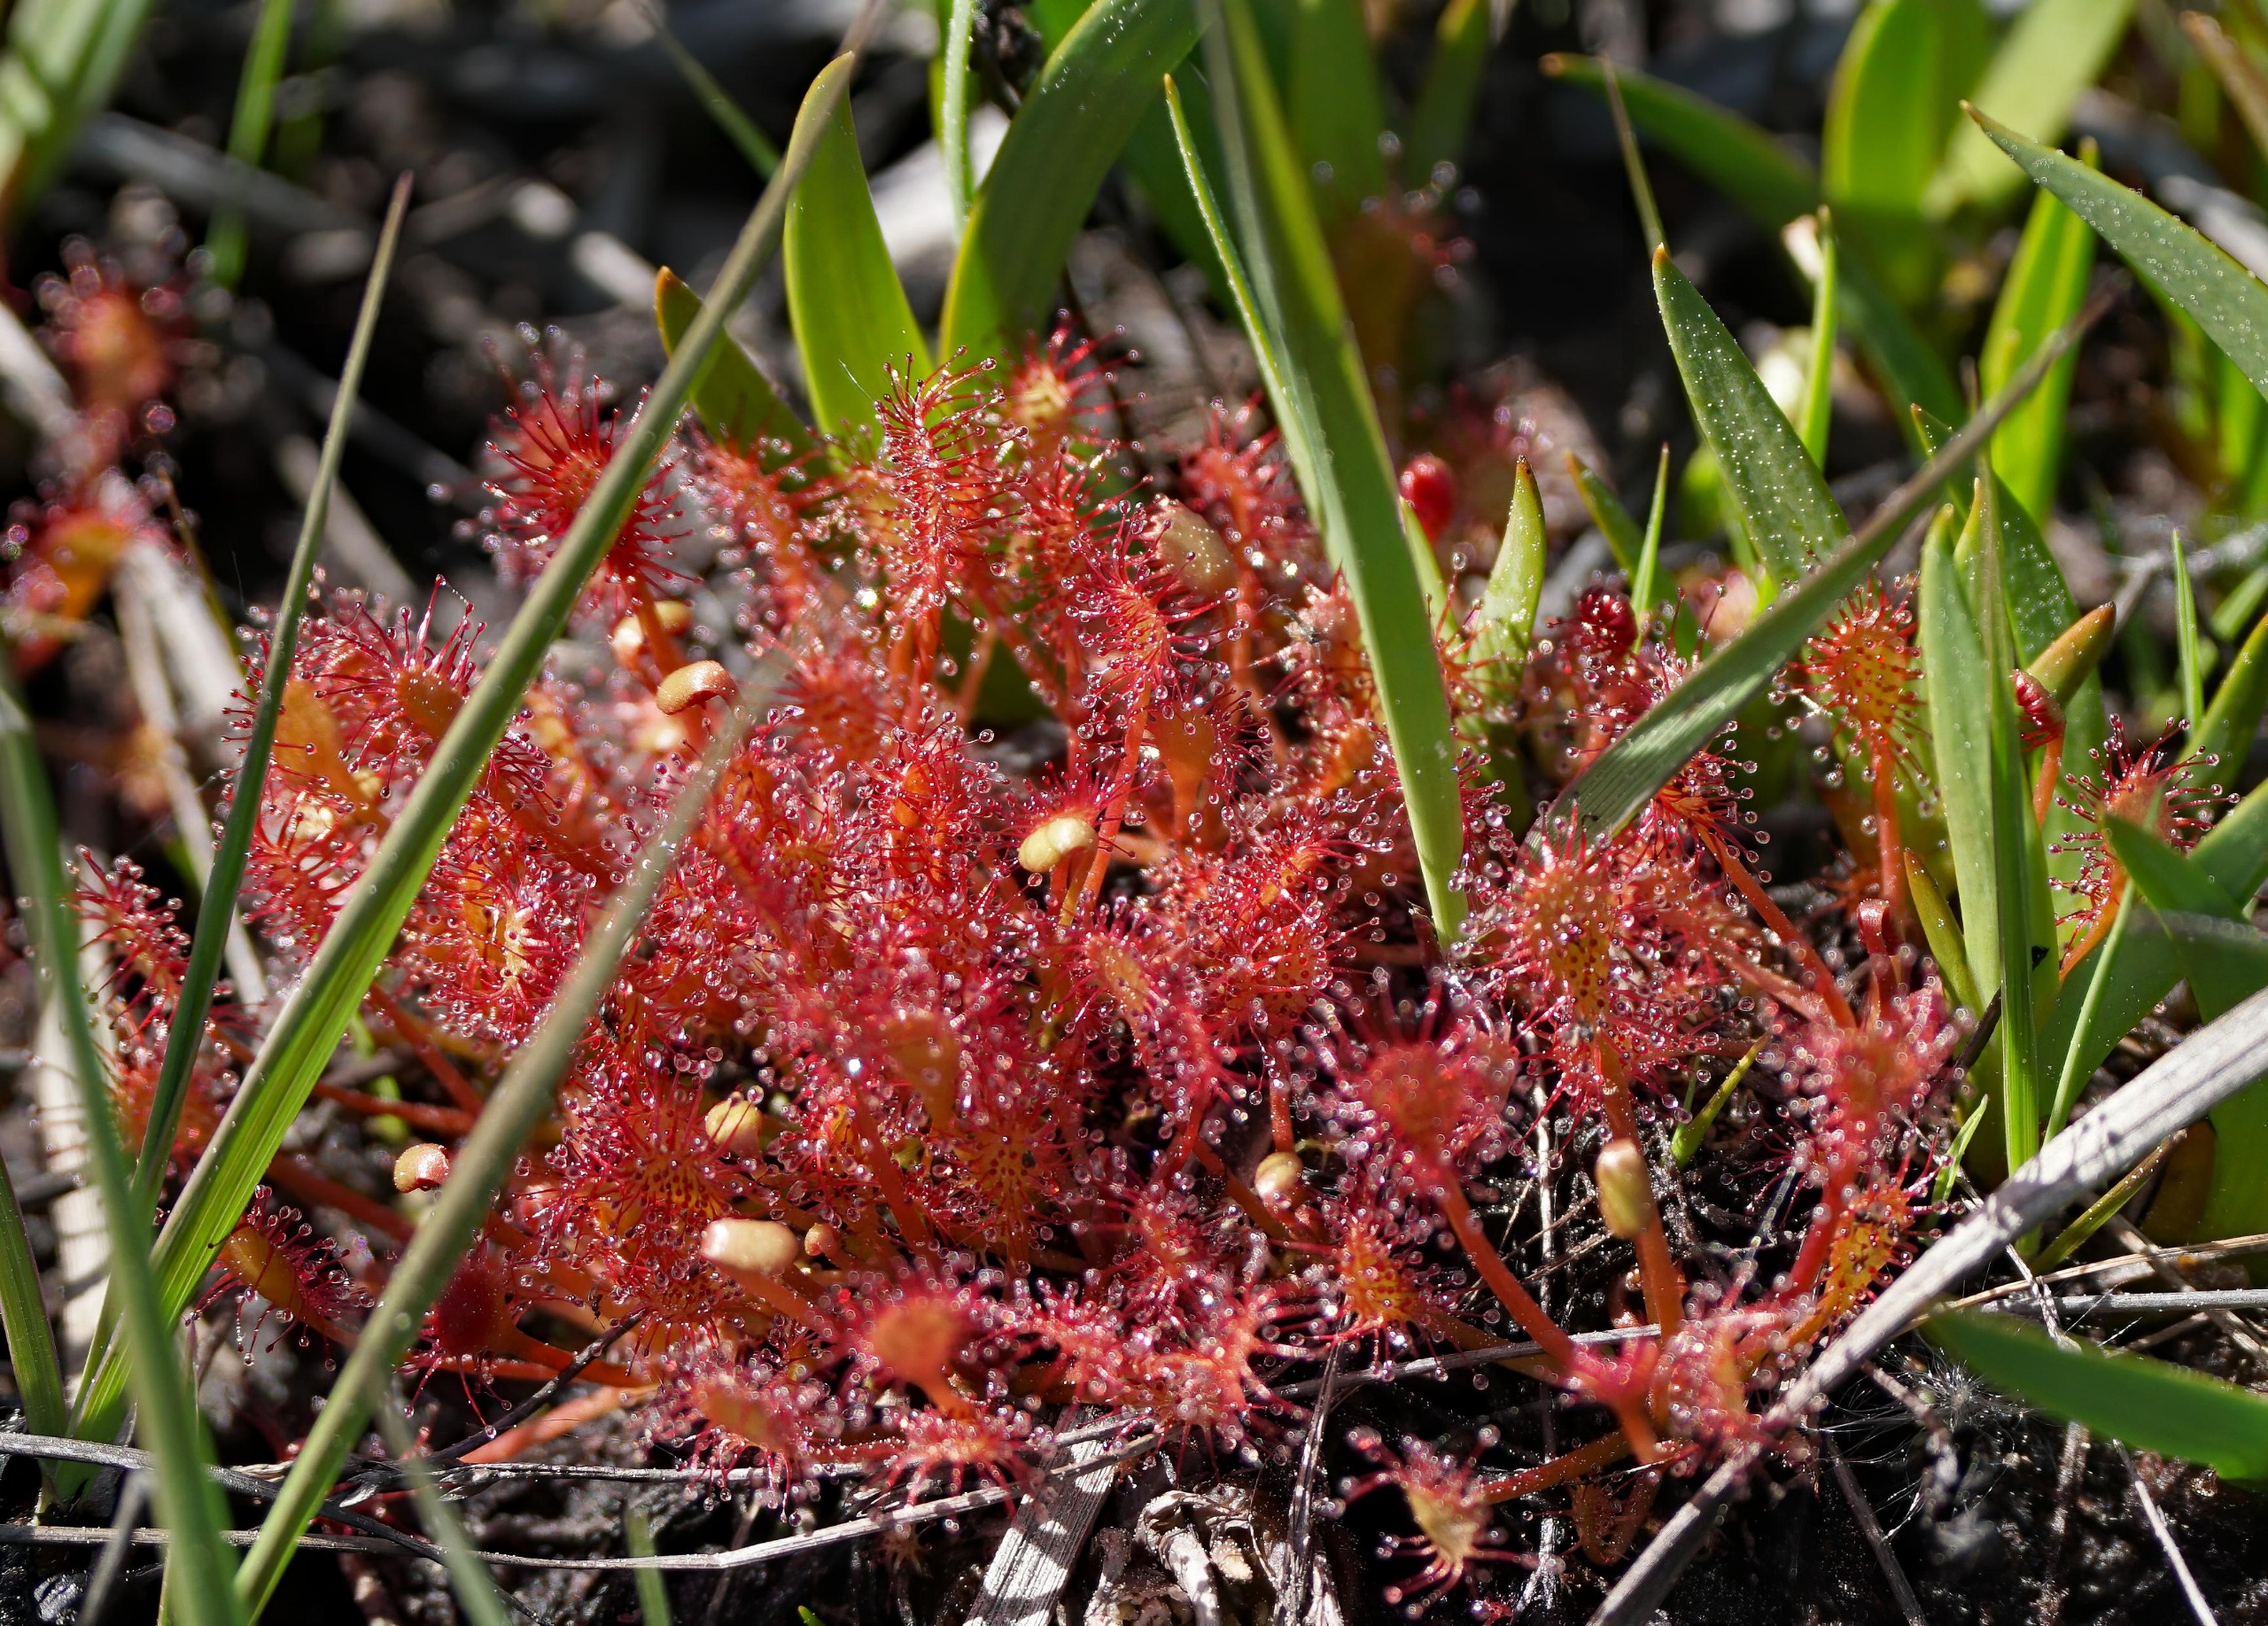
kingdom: Plantae
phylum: Tracheophyta
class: Magnoliopsida
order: Caryophyllales
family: Droseraceae
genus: Drosera
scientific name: Drosera intermedia
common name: Liden soldug
